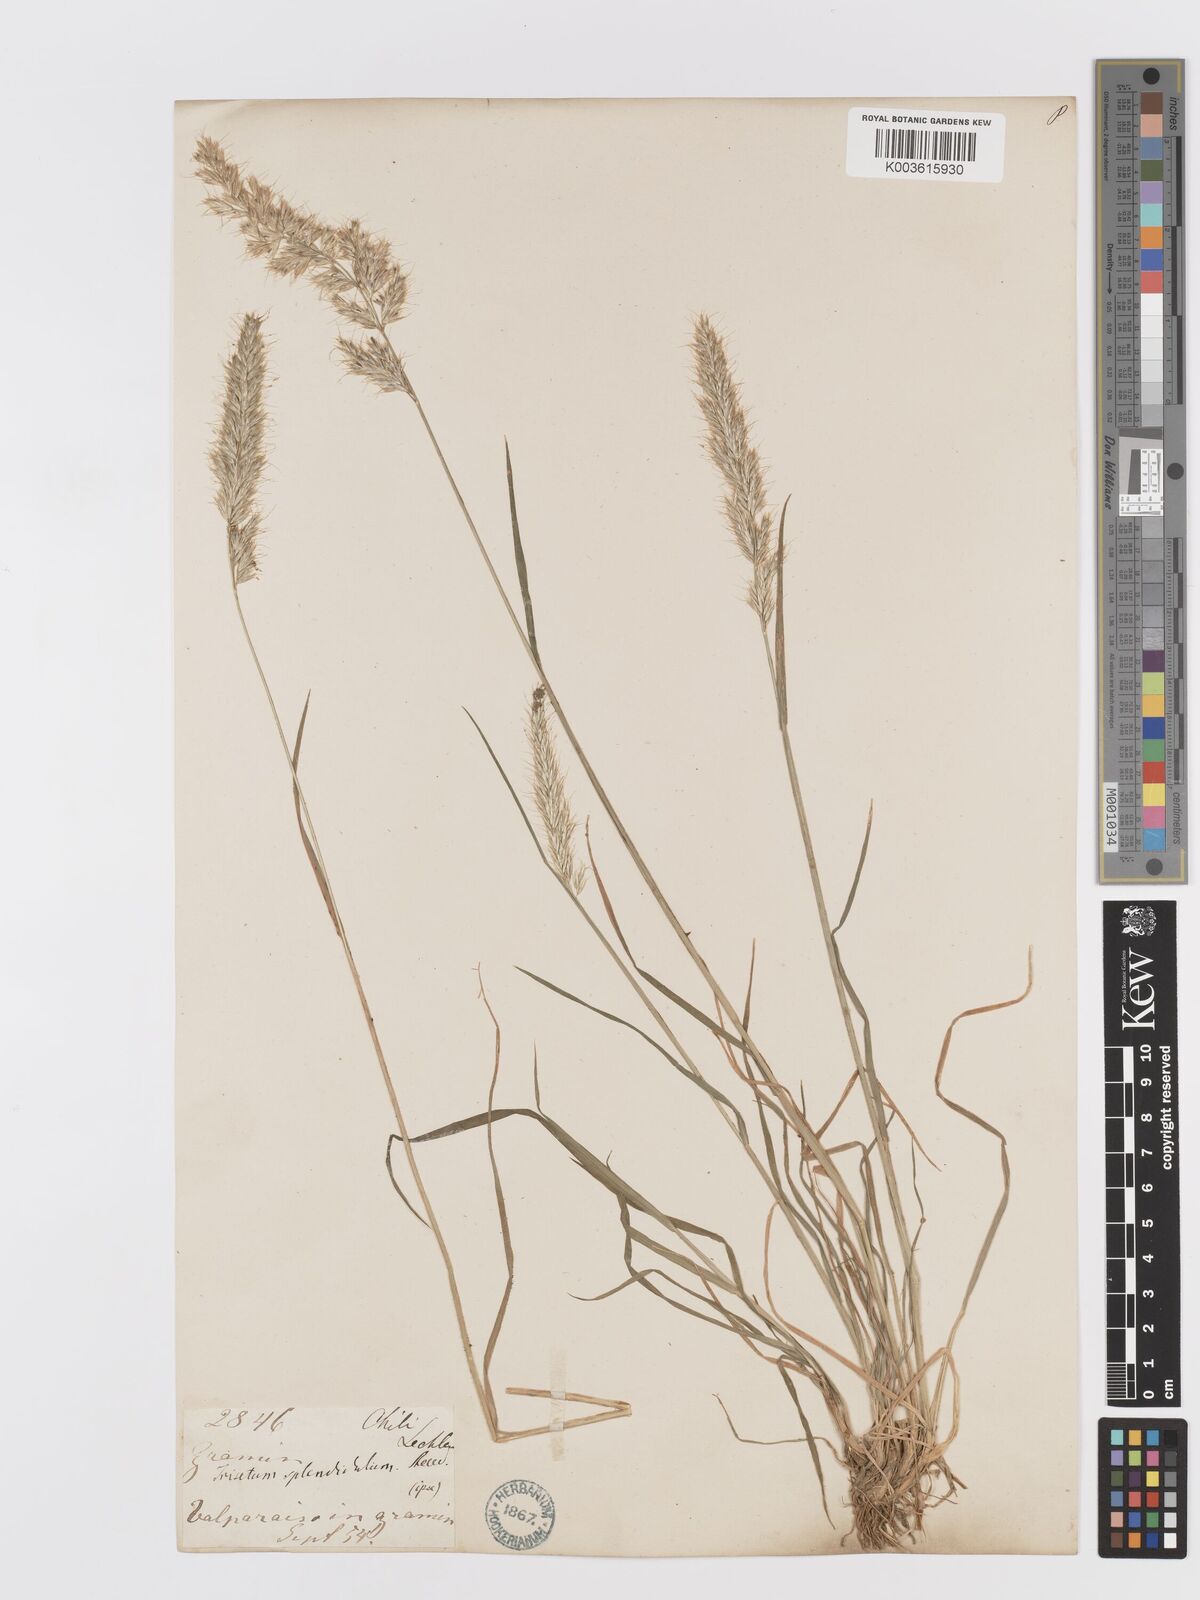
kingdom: Plantae
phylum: Tracheophyta
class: Liliopsida
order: Poales
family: Poaceae
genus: Koeleria
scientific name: Koeleria spicata
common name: Mountain trisetum
